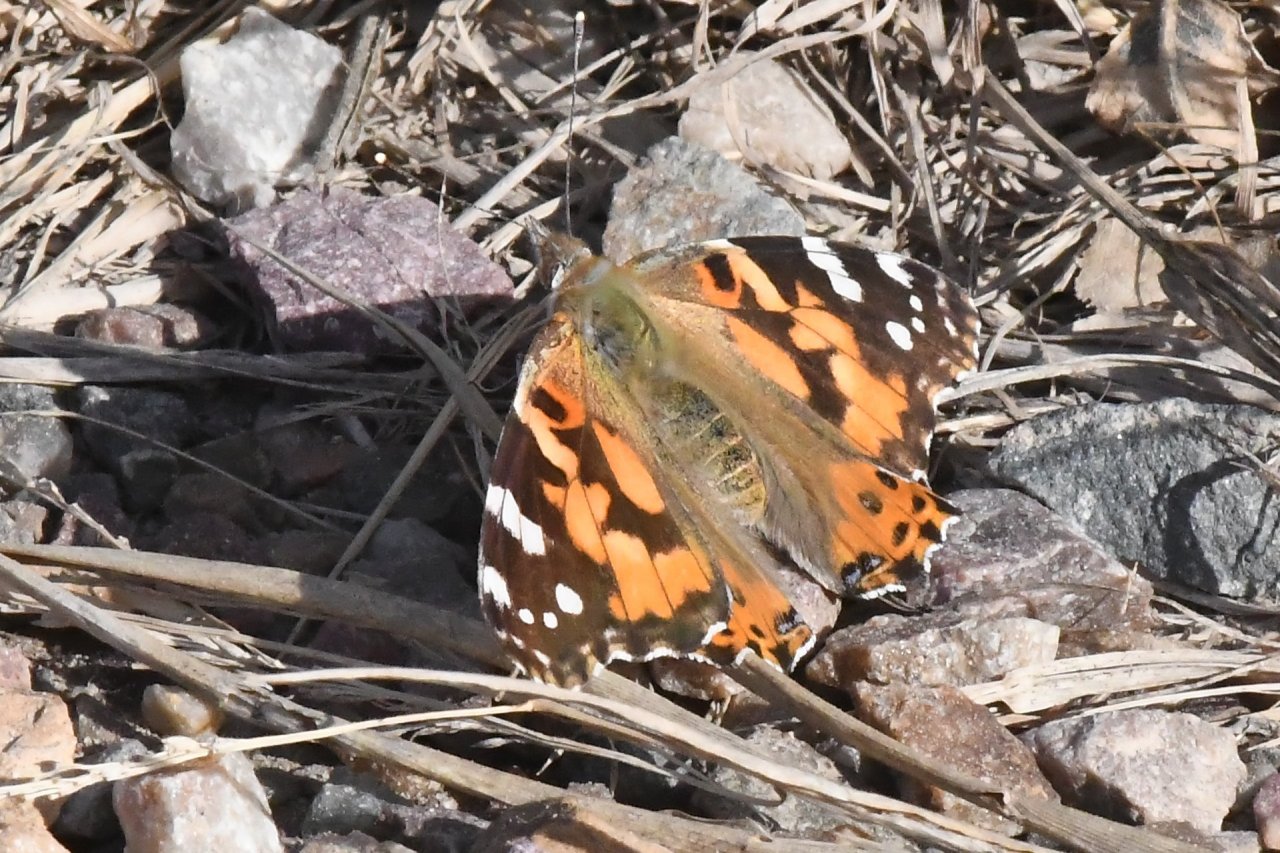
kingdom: Animalia
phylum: Arthropoda
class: Insecta
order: Lepidoptera
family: Nymphalidae
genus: Vanessa
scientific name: Vanessa cardui
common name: Painted Lady
